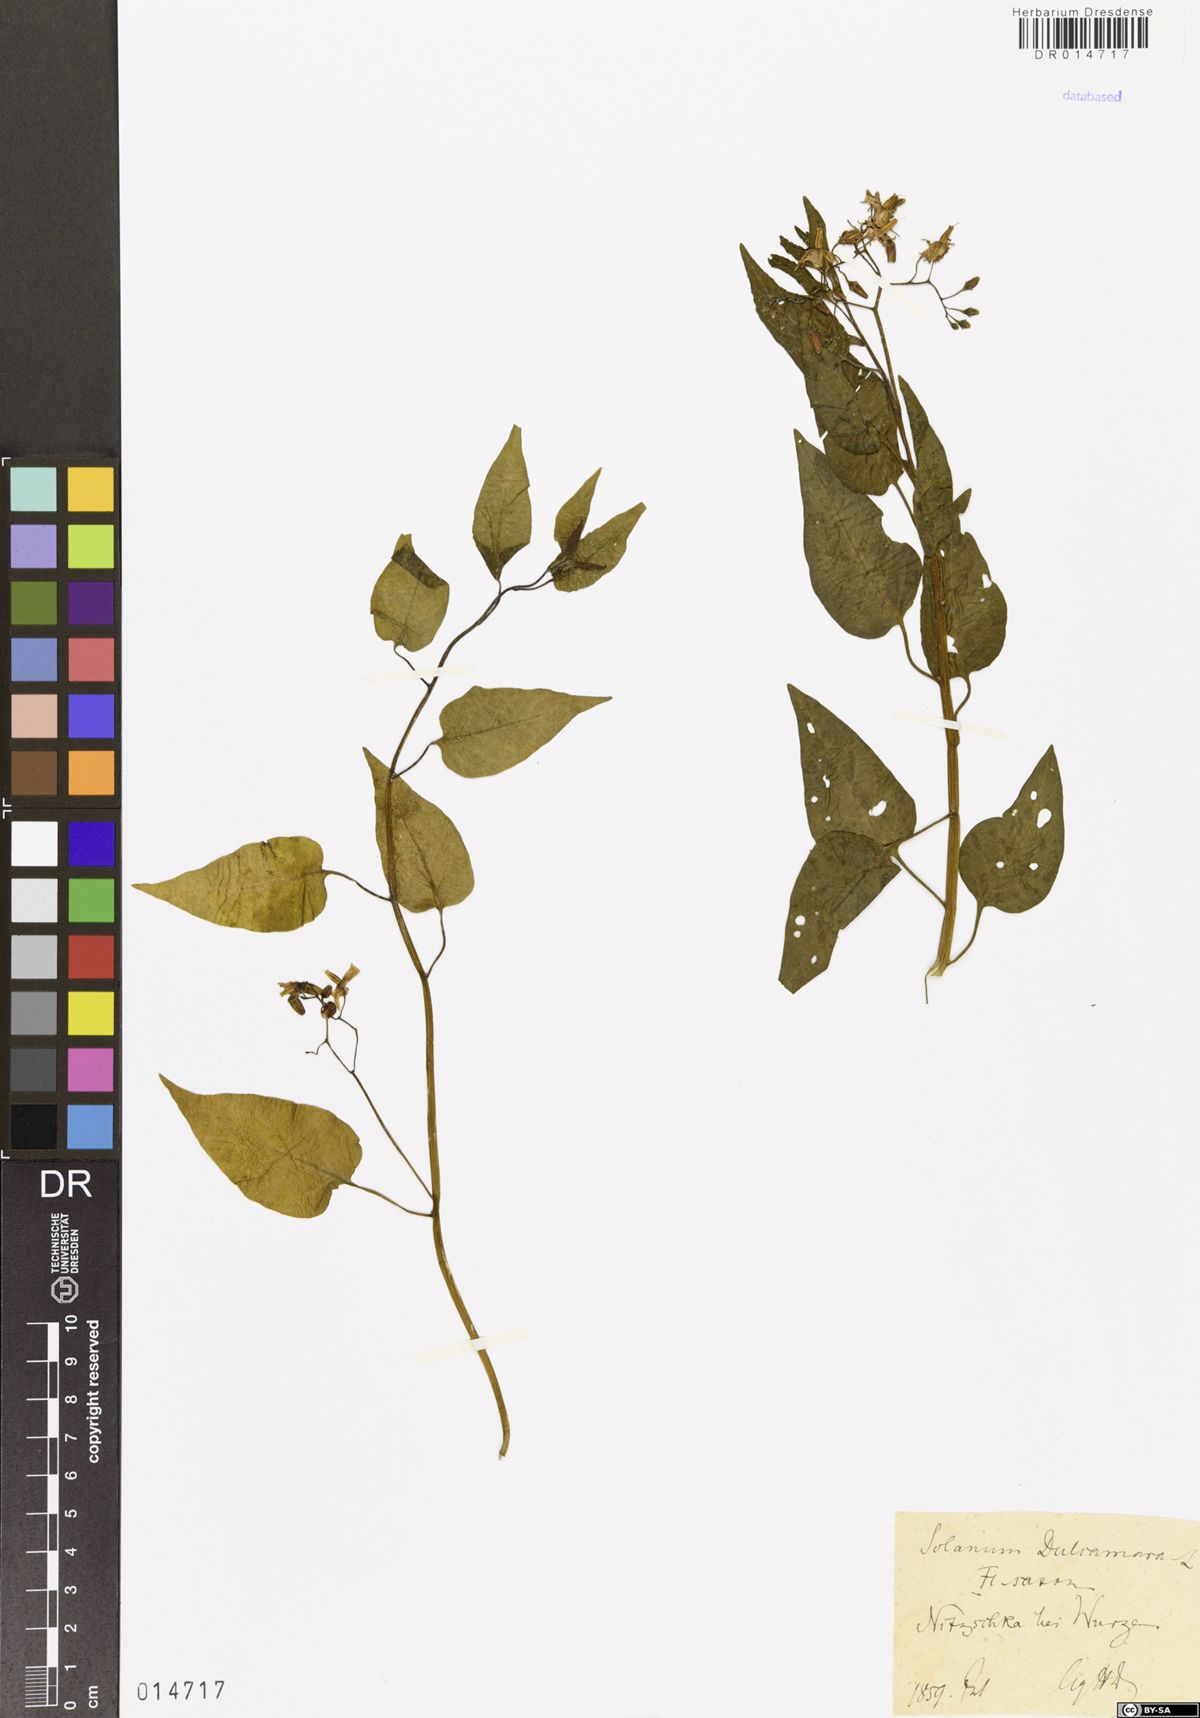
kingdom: Plantae
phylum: Tracheophyta
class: Magnoliopsida
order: Solanales
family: Solanaceae
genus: Solanum
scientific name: Solanum dulcamara
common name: Climbing nightshade
